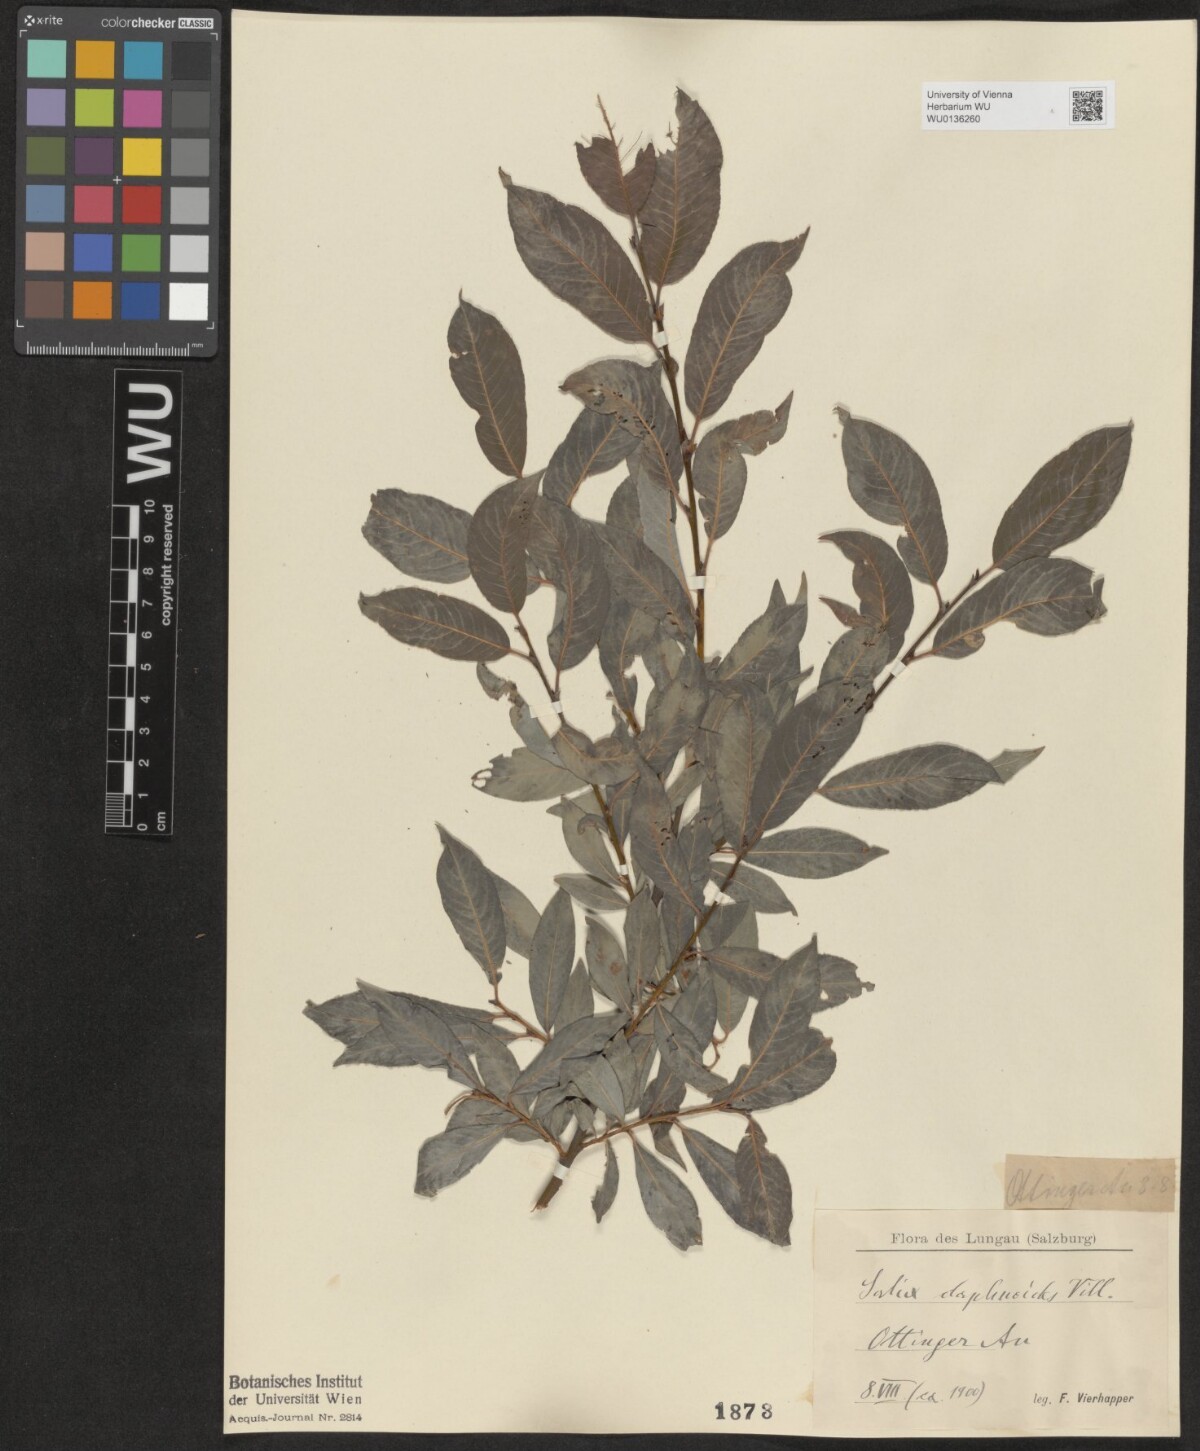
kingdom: Plantae
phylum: Tracheophyta
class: Magnoliopsida
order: Malpighiales
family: Salicaceae
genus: Salix
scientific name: Salix daphnoides
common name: European violet-willow
